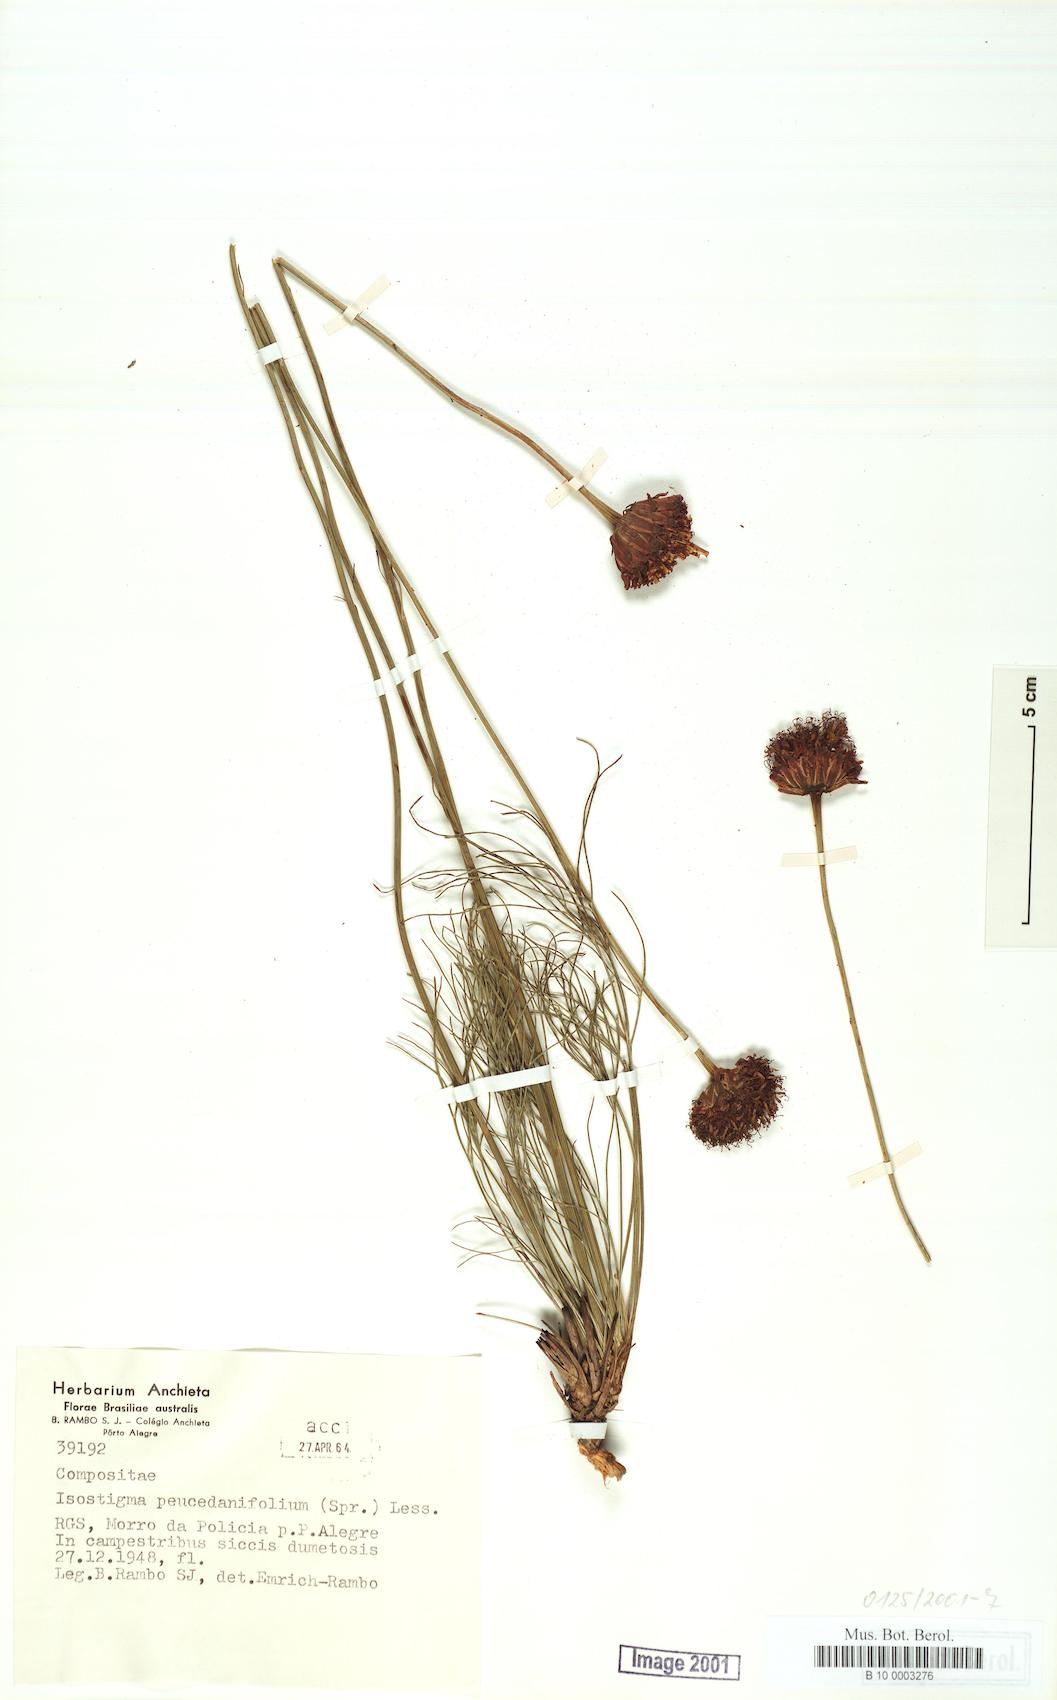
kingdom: Plantae
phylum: Tracheophyta
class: Magnoliopsida
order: Asterales
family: Asteraceae
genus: Isostigma
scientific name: Isostigma peucedanifolium
